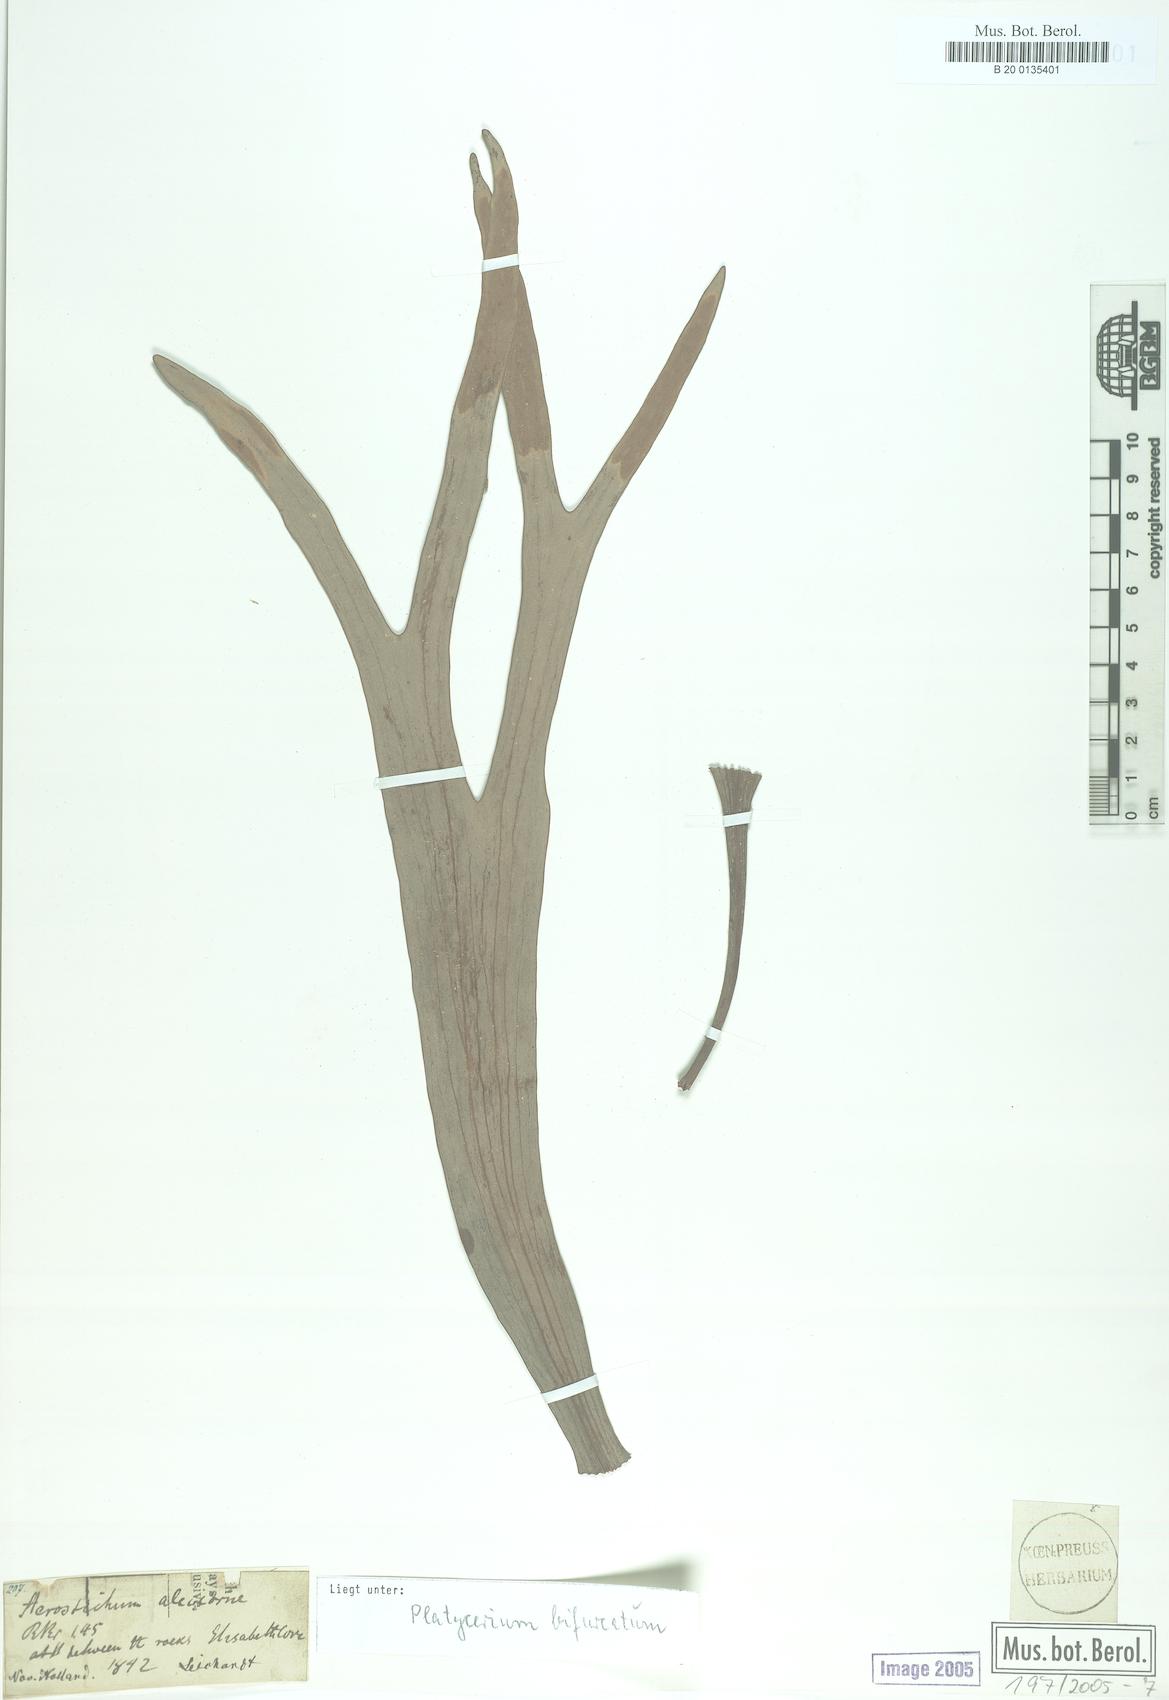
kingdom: Plantae
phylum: Tracheophyta
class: Polypodiopsida
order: Polypodiales
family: Polypodiaceae
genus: Platycerium
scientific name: Platycerium bifurcatum
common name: Elkhorn fern
